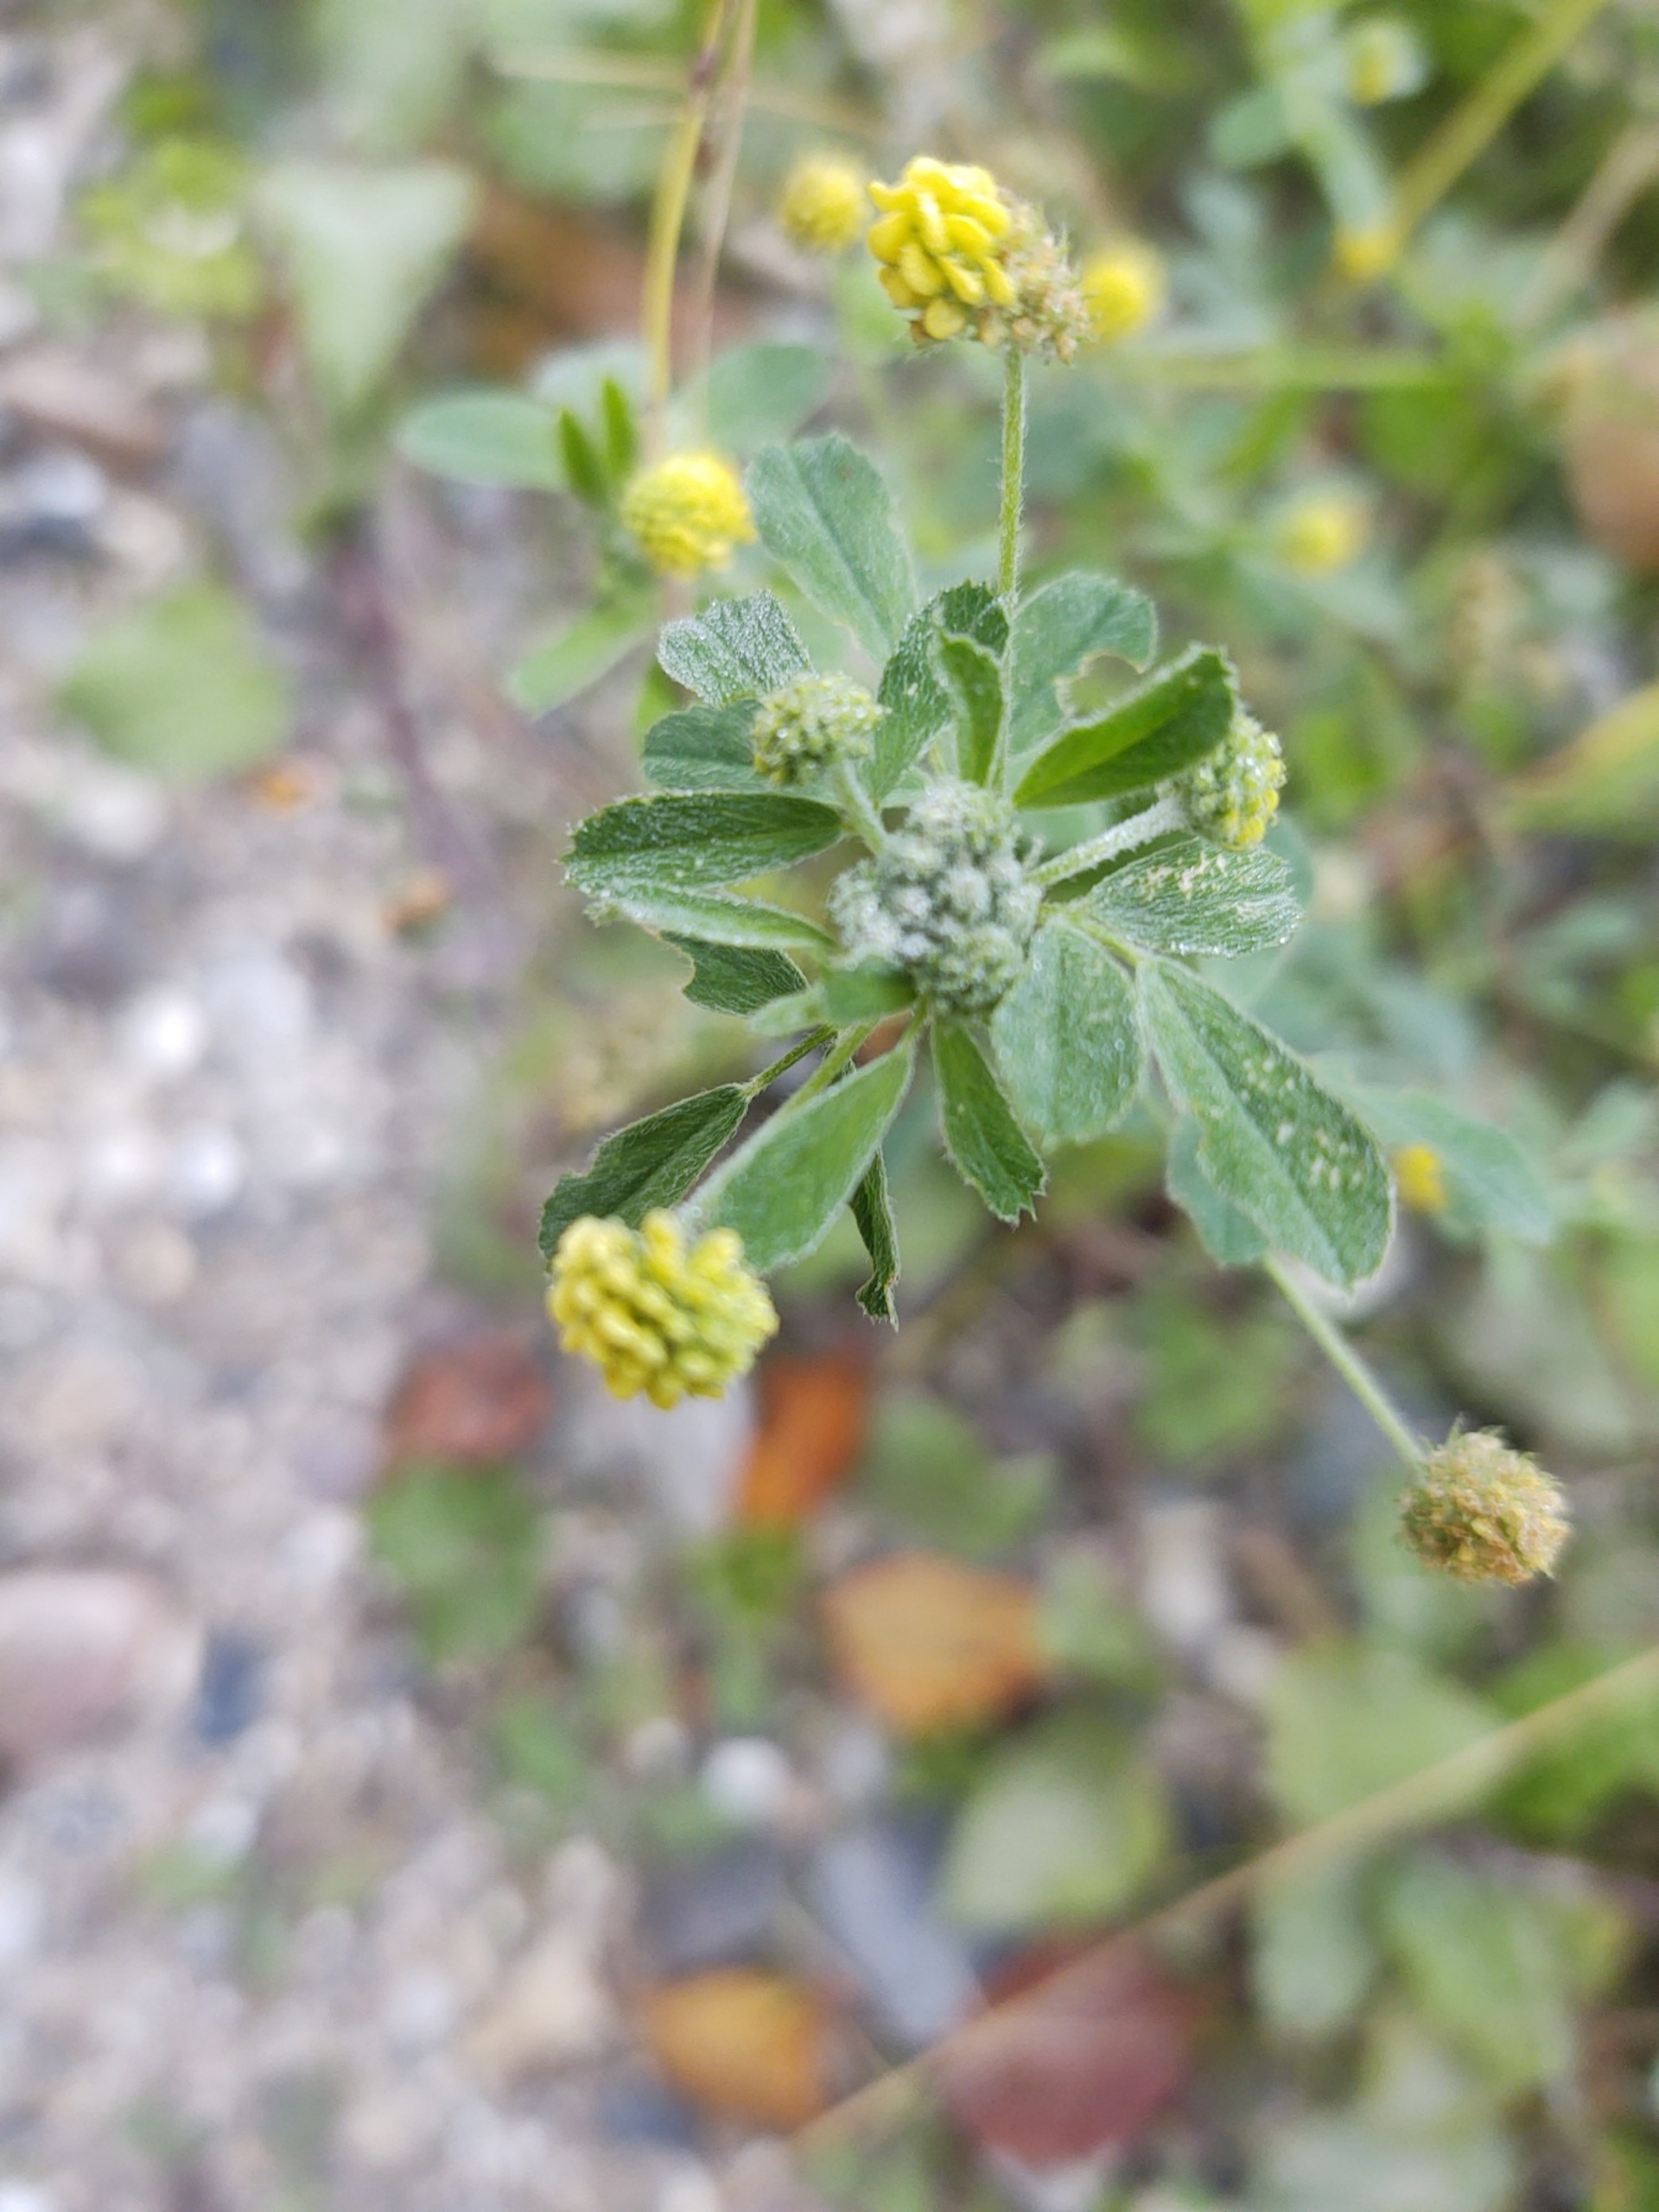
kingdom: Plantae
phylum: Tracheophyta
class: Magnoliopsida
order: Fabales
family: Fabaceae
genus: Medicago
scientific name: Medicago lupulina
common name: Humle-sneglebælg
